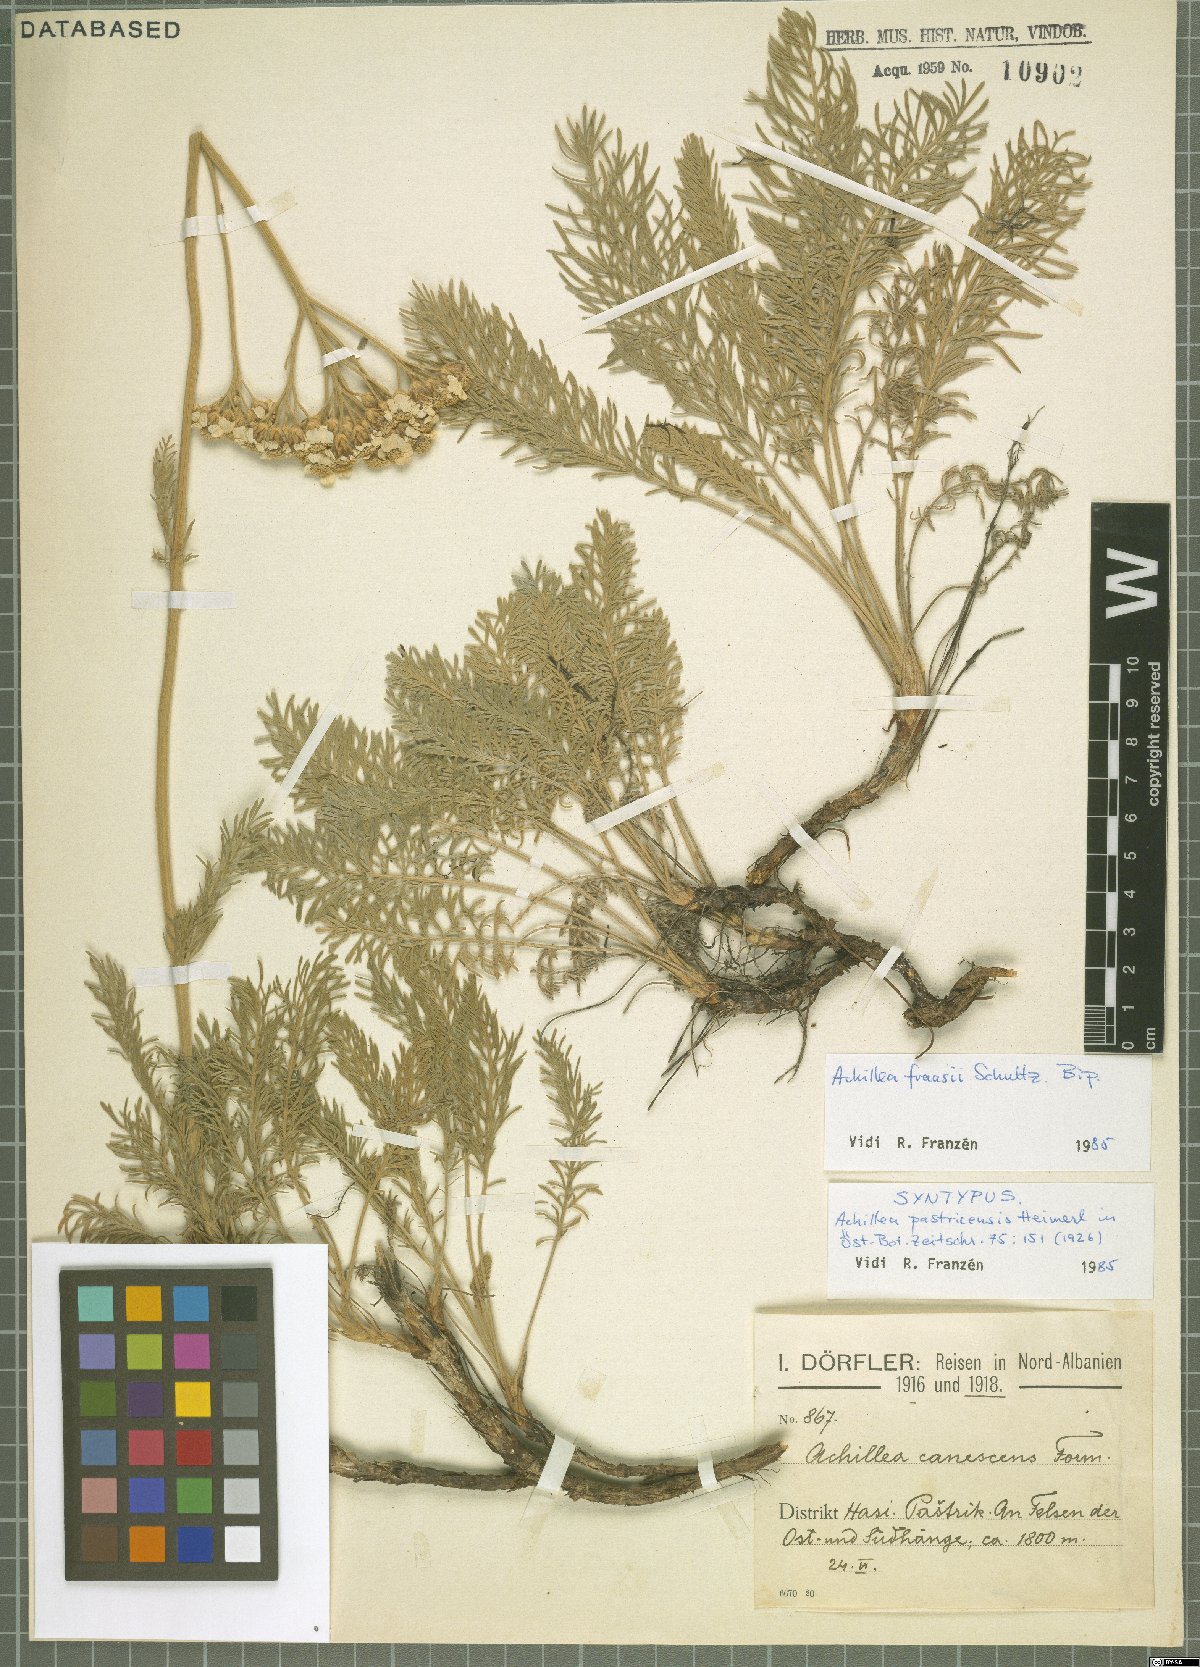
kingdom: Plantae
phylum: Tracheophyta
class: Magnoliopsida
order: Asterales
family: Asteraceae
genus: Achillea
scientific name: Achillea fraasii
